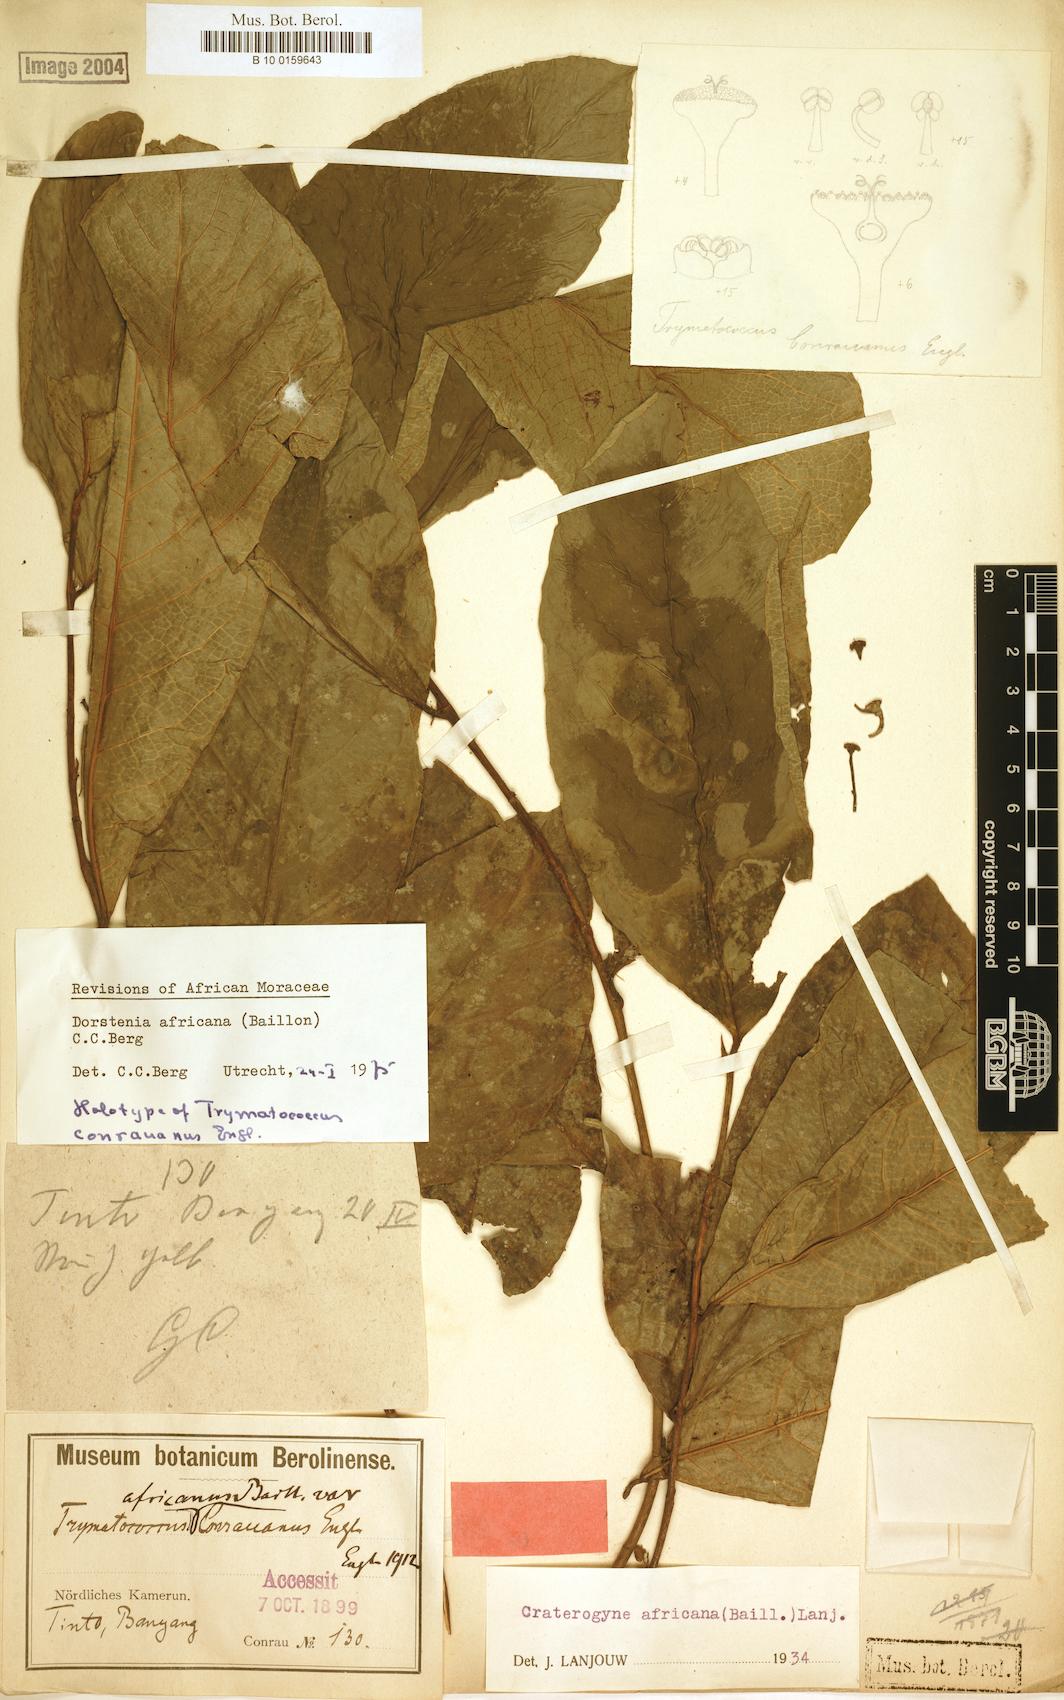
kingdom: Plantae
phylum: Tracheophyta
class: Magnoliopsida
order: Rosales
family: Moraceae
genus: Dorstenia
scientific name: Dorstenia africana
